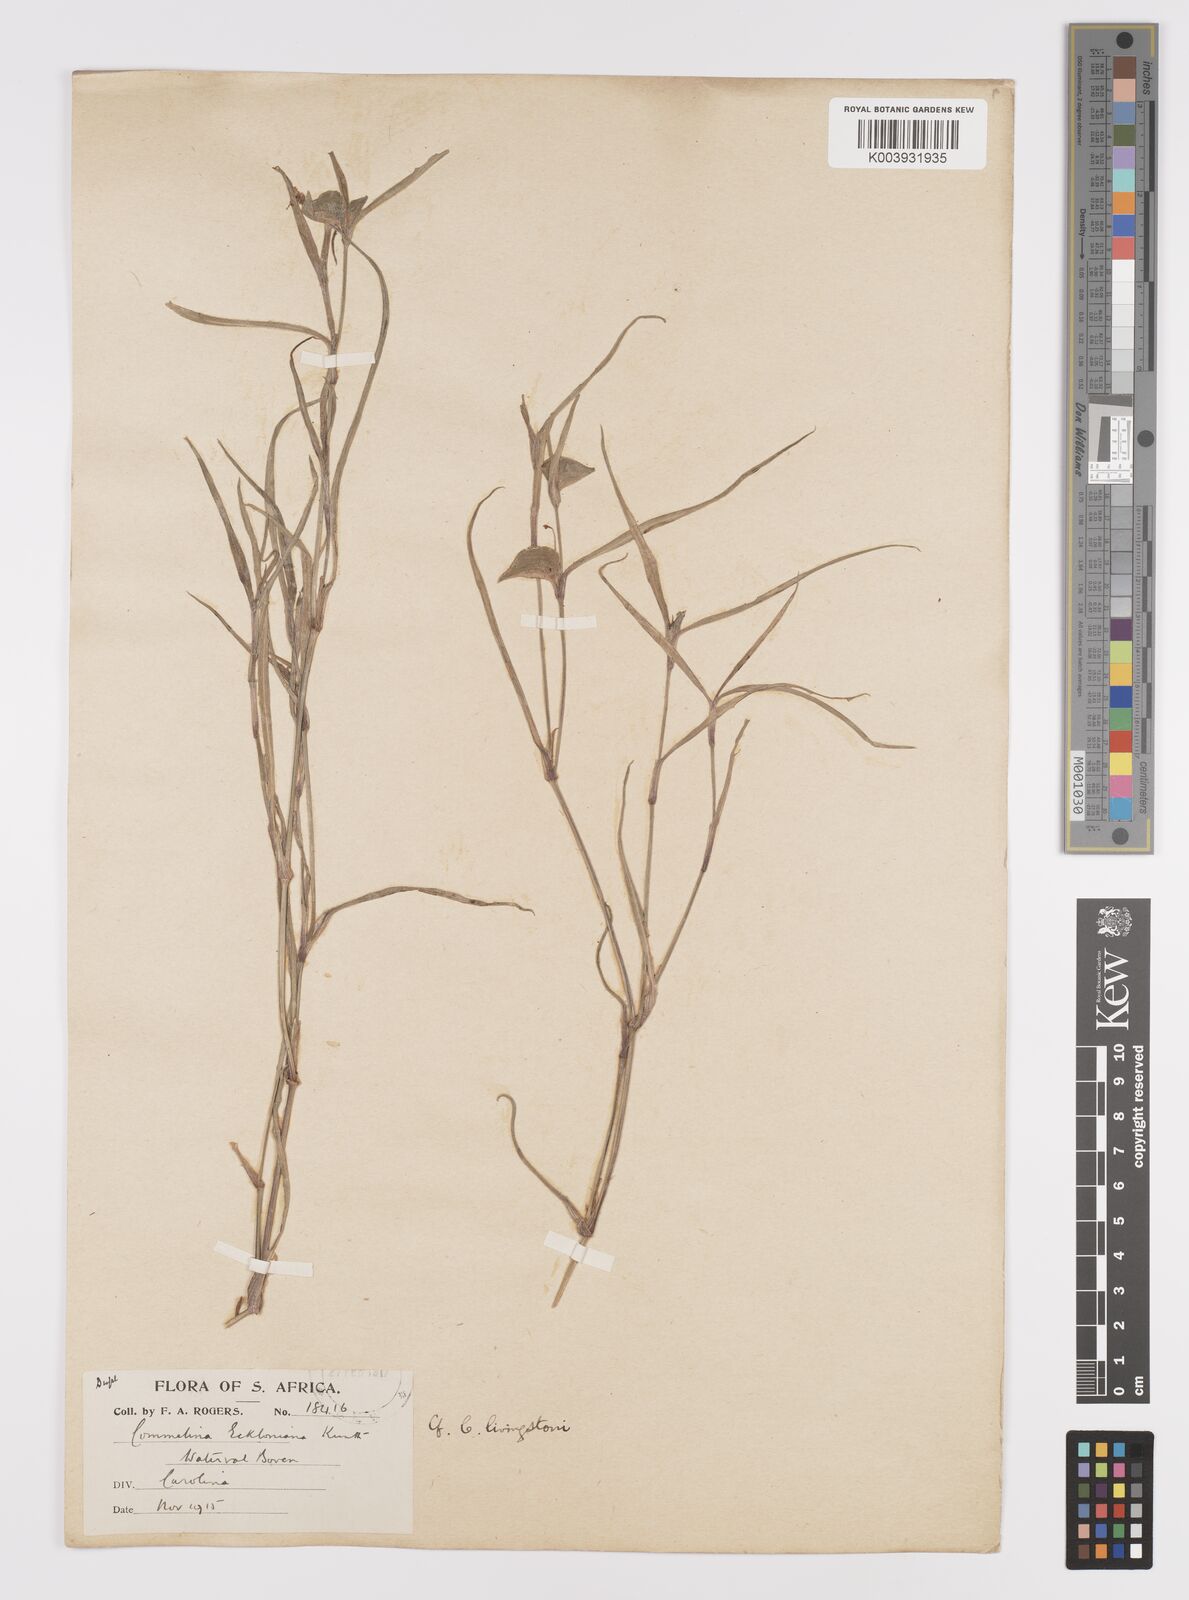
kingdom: Plantae
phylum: Tracheophyta
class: Liliopsida
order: Commelinales
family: Commelinaceae
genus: Commelina
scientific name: Commelina erecta
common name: Blousel blommetjie
